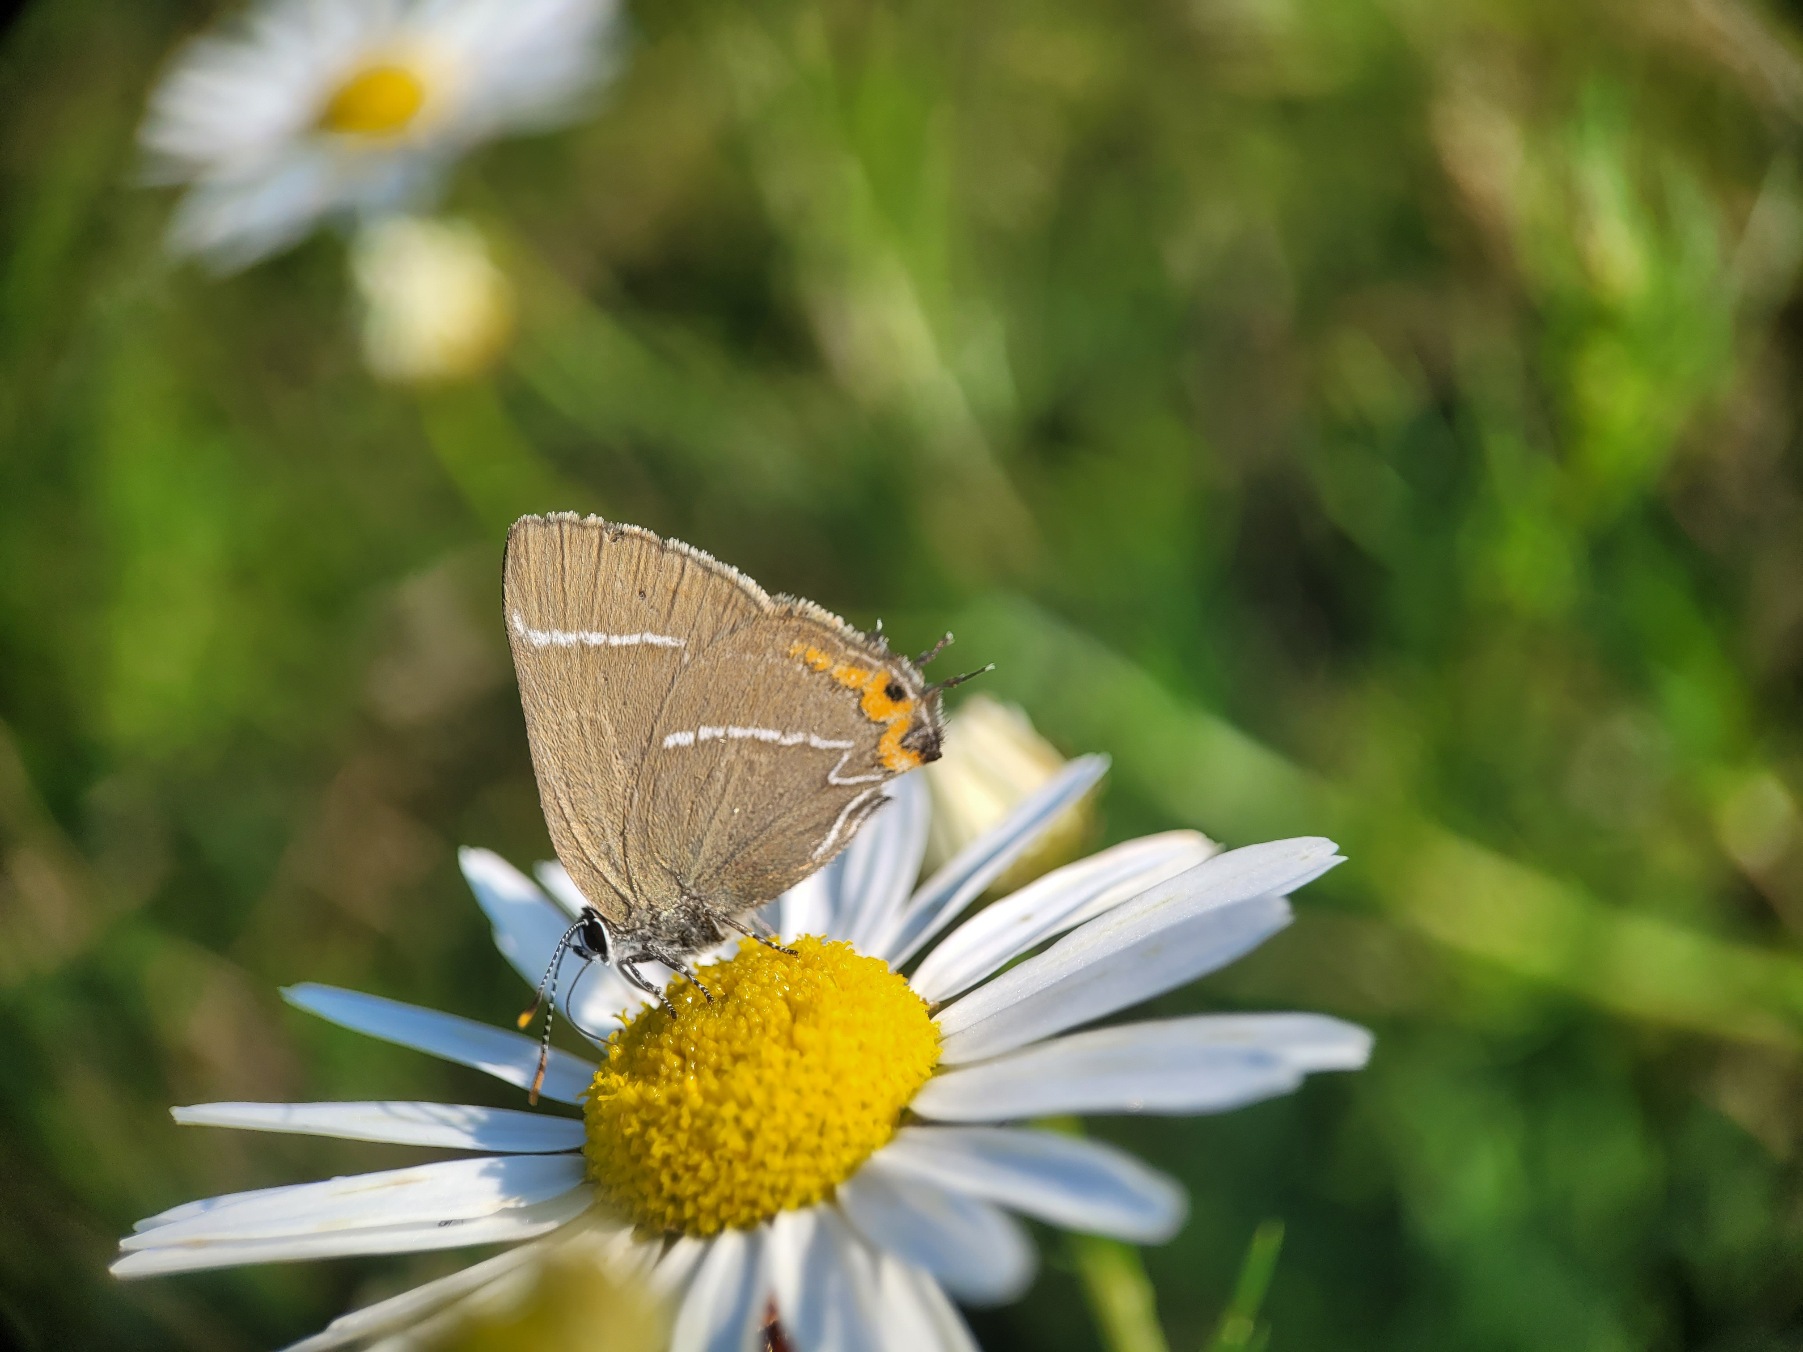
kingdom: Animalia
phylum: Arthropoda
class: Insecta
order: Lepidoptera
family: Lycaenidae
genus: Satyrium
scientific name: Satyrium w-album
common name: Det hvide W
